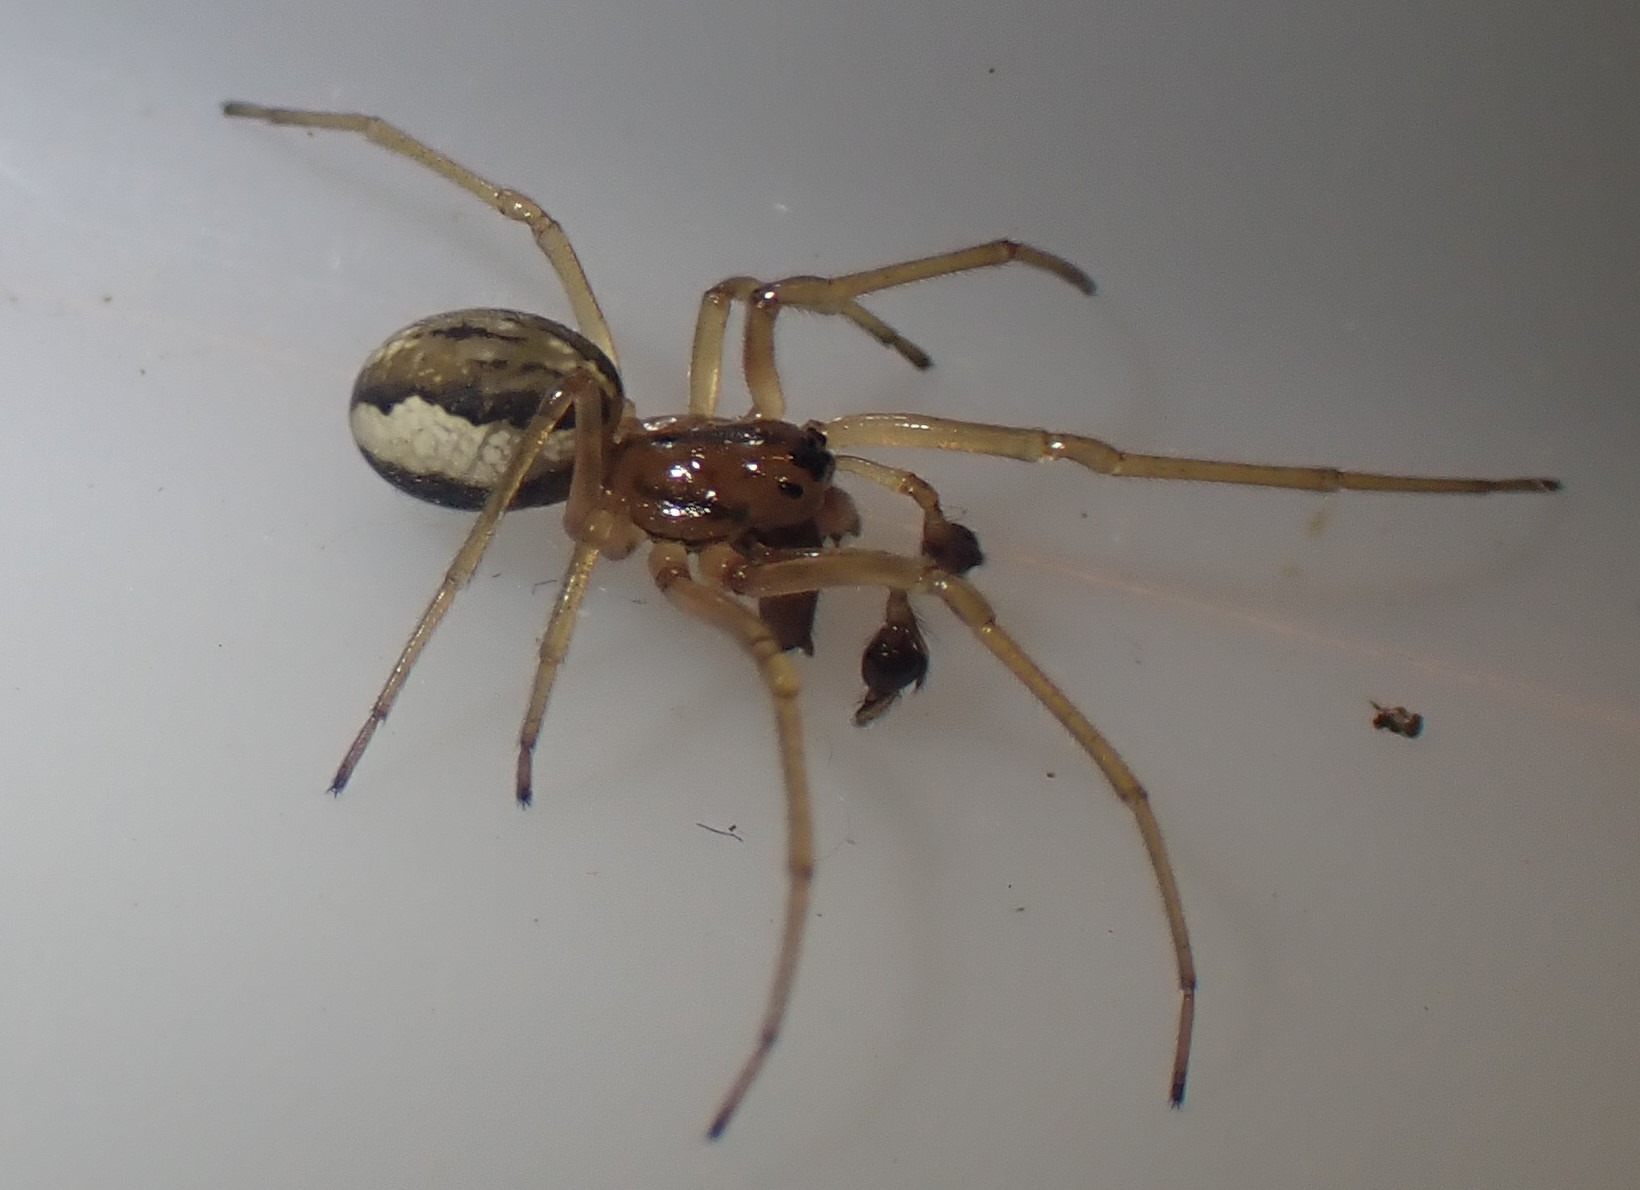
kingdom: Animalia
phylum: Arthropoda
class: Arachnida
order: Araneae
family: Tetragnathidae
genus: Pachygnatha
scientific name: Pachygnatha clercki
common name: Søtykkæbe
